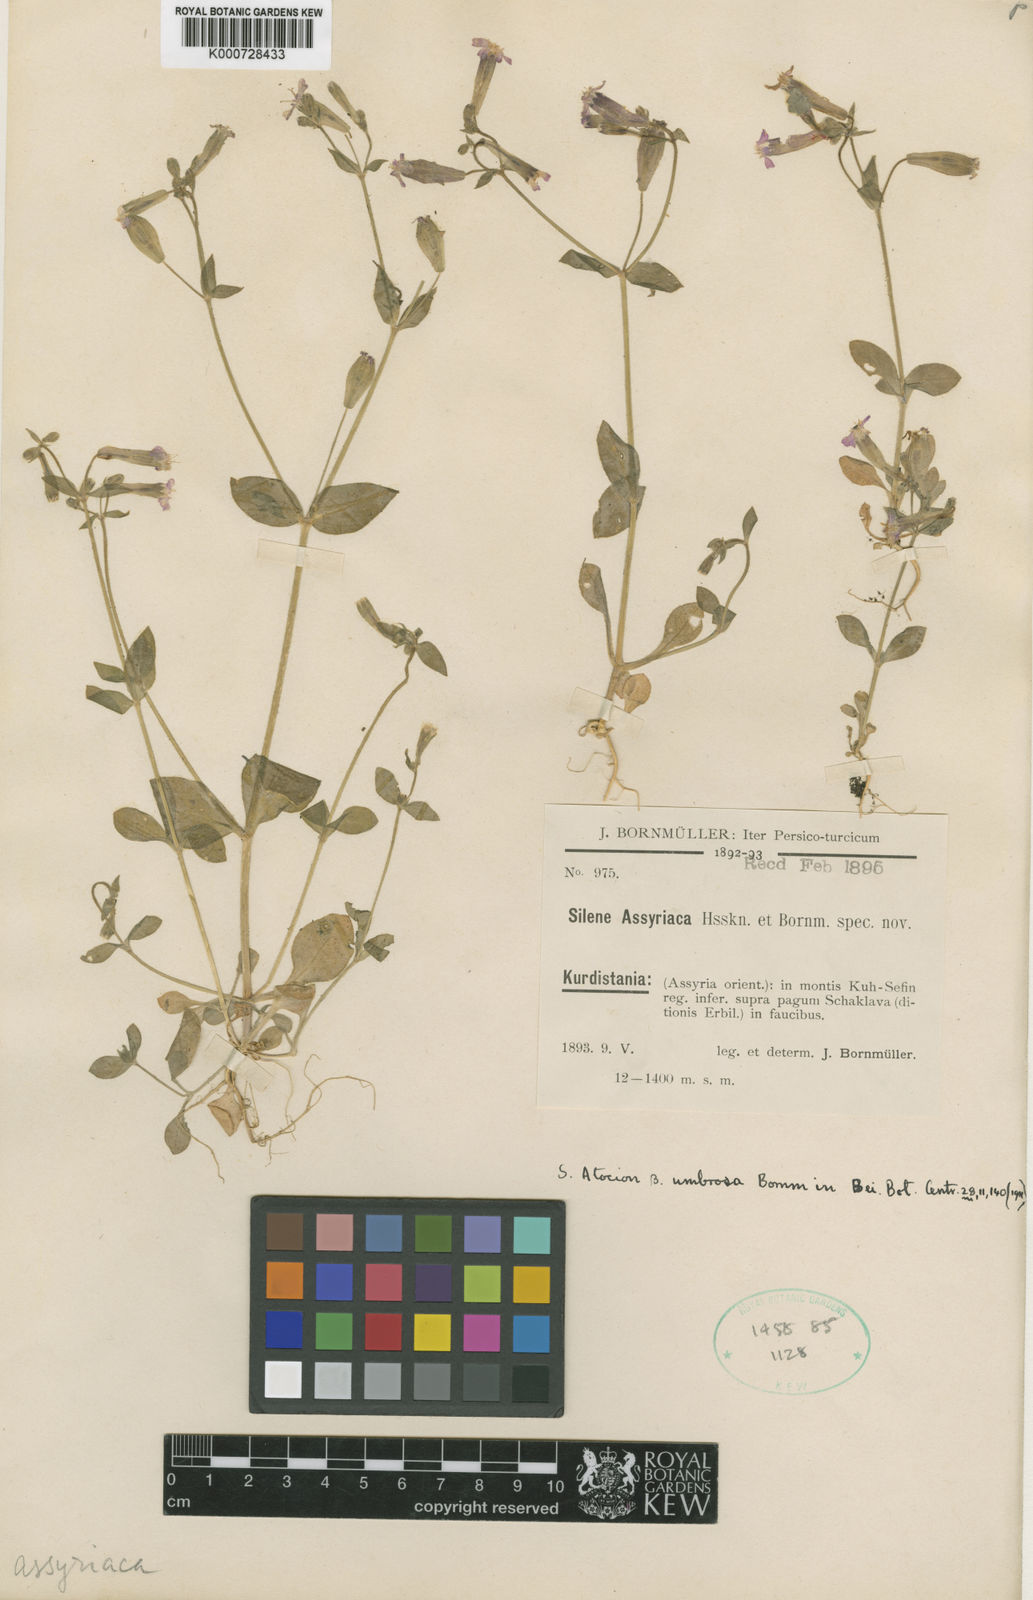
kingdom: Plantae
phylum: Tracheophyta
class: Magnoliopsida
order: Caryophyllales
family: Caryophyllaceae
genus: Silene
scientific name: Silene
